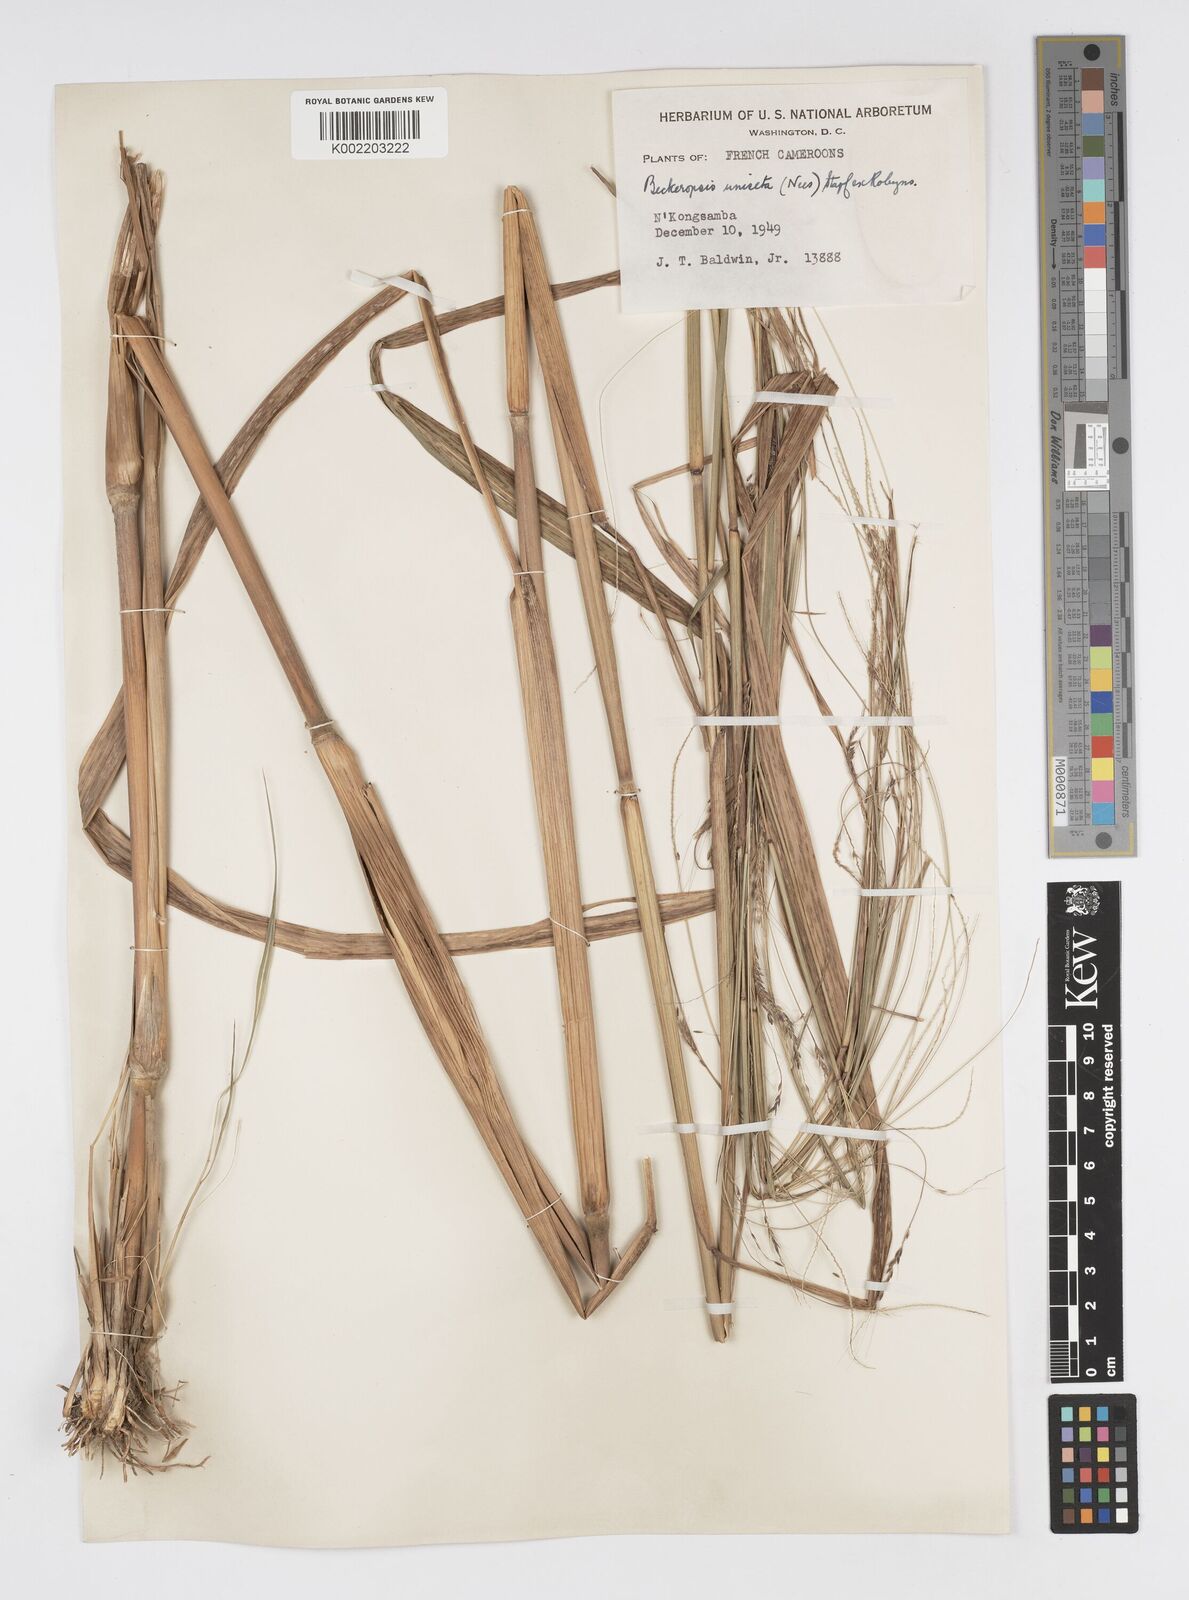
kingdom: Plantae
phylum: Tracheophyta
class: Liliopsida
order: Poales
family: Poaceae
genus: Cenchrus
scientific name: Cenchrus unisetus
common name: Natal grass
